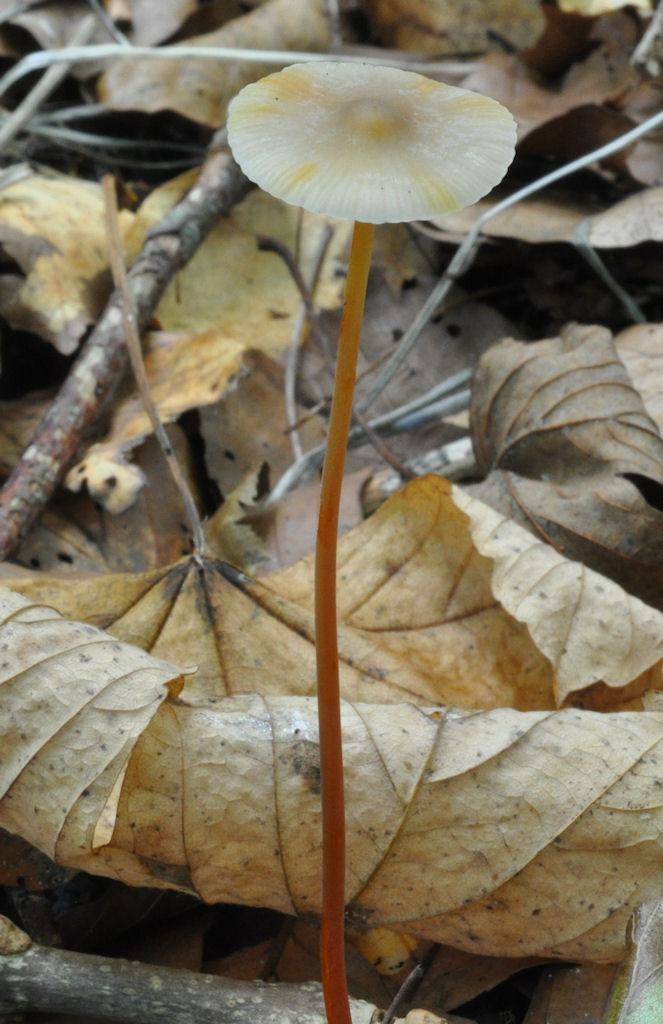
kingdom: Fungi
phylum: Basidiomycota
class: Agaricomycetes
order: Agaricales
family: Mycenaceae
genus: Mycena
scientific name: Mycena crocata
